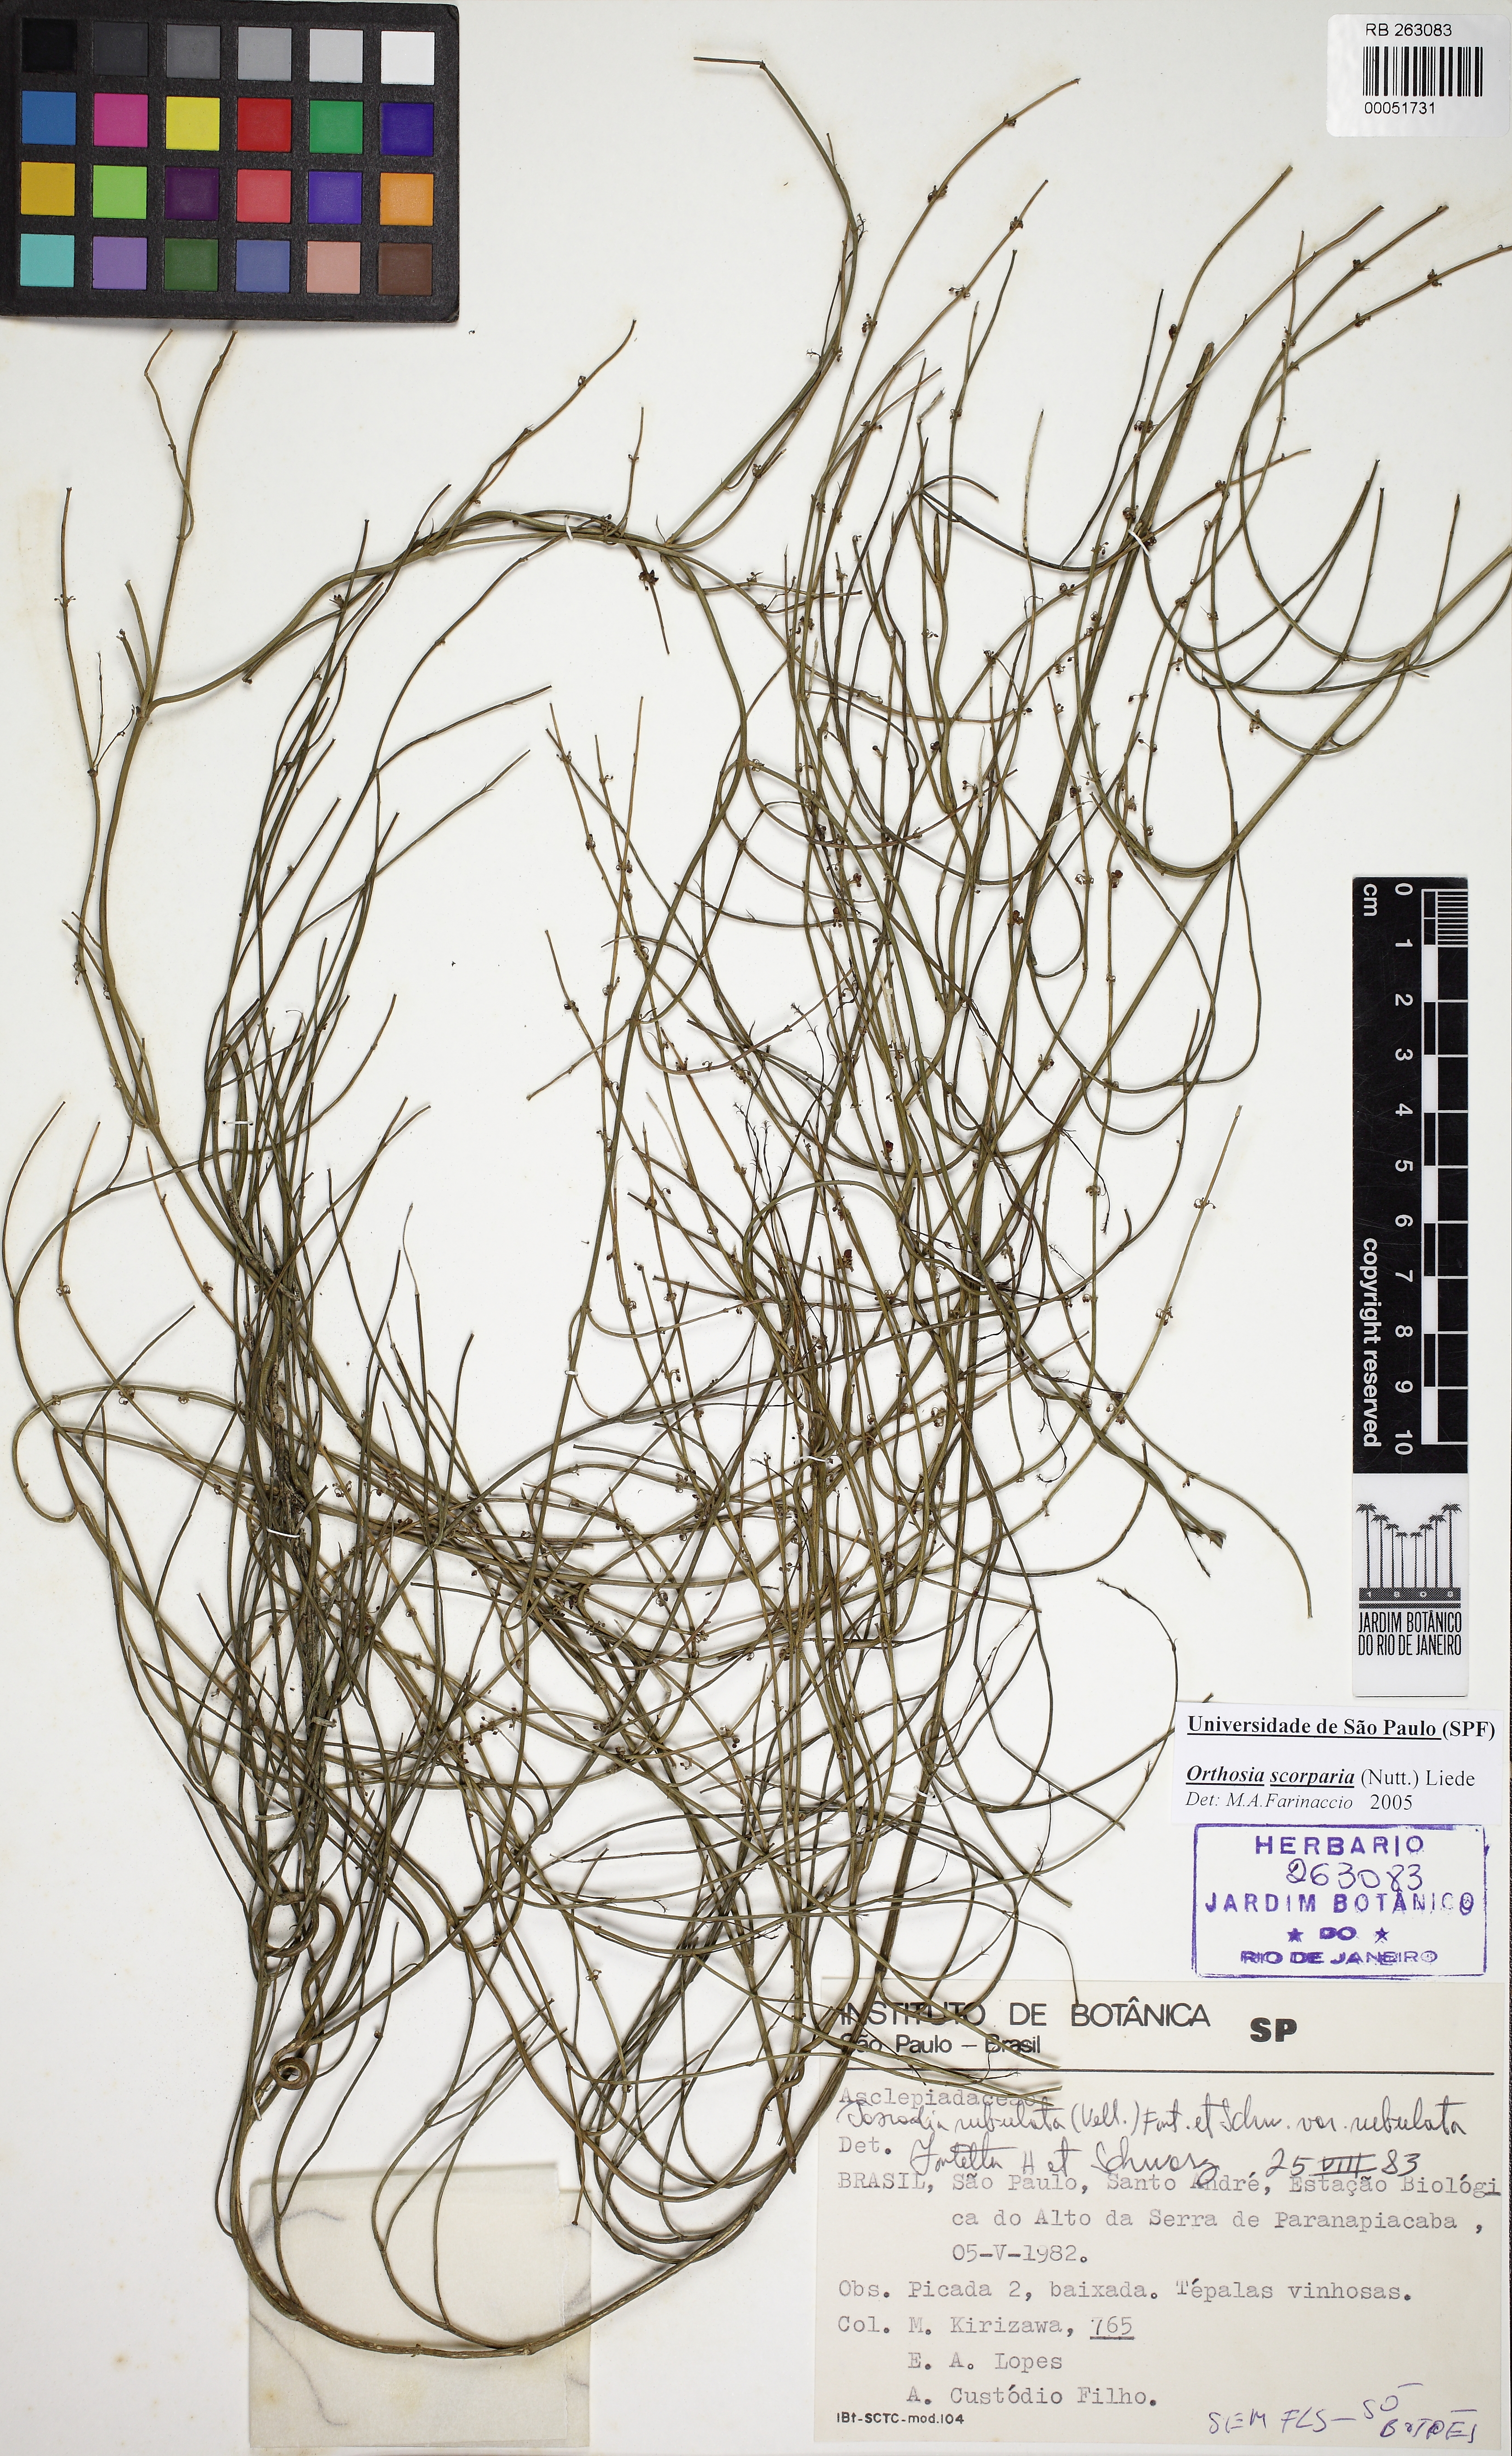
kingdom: Plantae
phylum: Tracheophyta
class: Magnoliopsida
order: Gentianales
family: Apocynaceae
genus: Orthosia
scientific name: Orthosia scoparia
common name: Leafless swallow-wort
